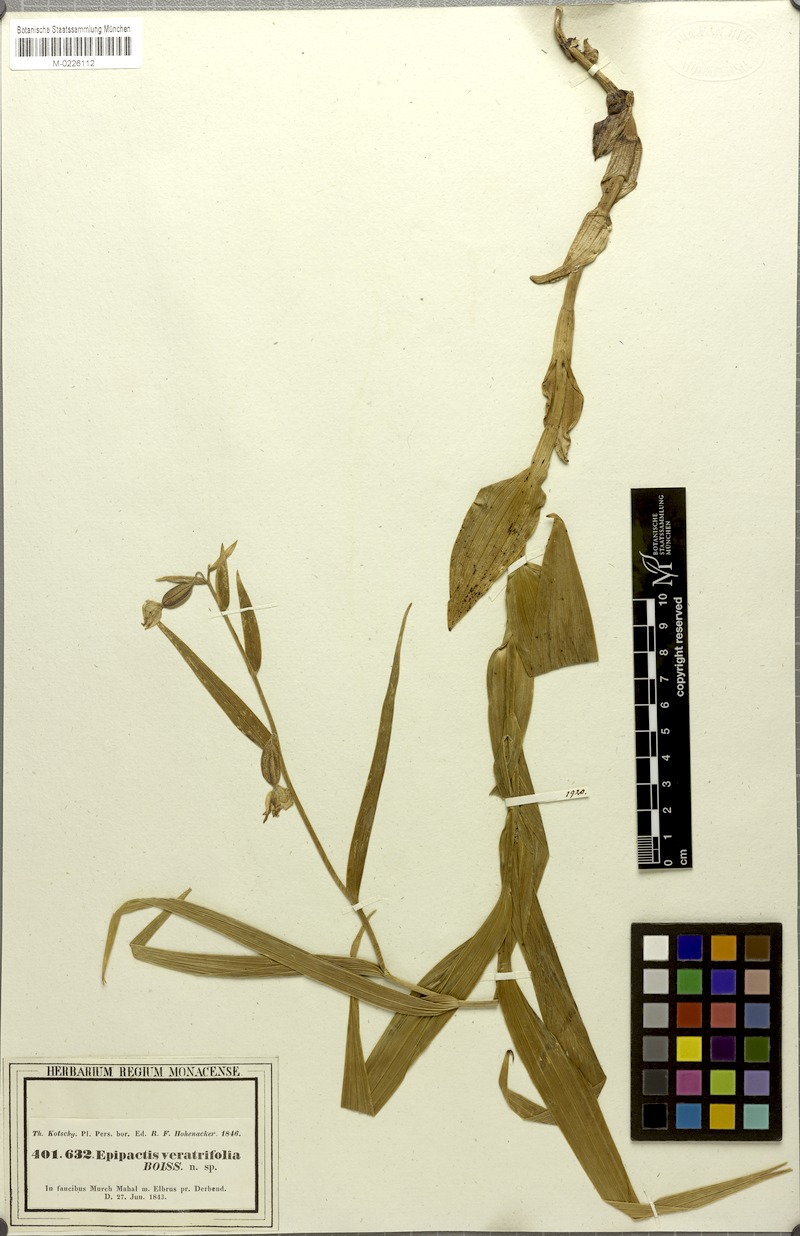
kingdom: Plantae
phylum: Tracheophyta
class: Liliopsida
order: Asparagales
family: Orchidaceae
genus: Epipactis
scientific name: Epipactis veratrifolia
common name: Eastern marsh helleborine
